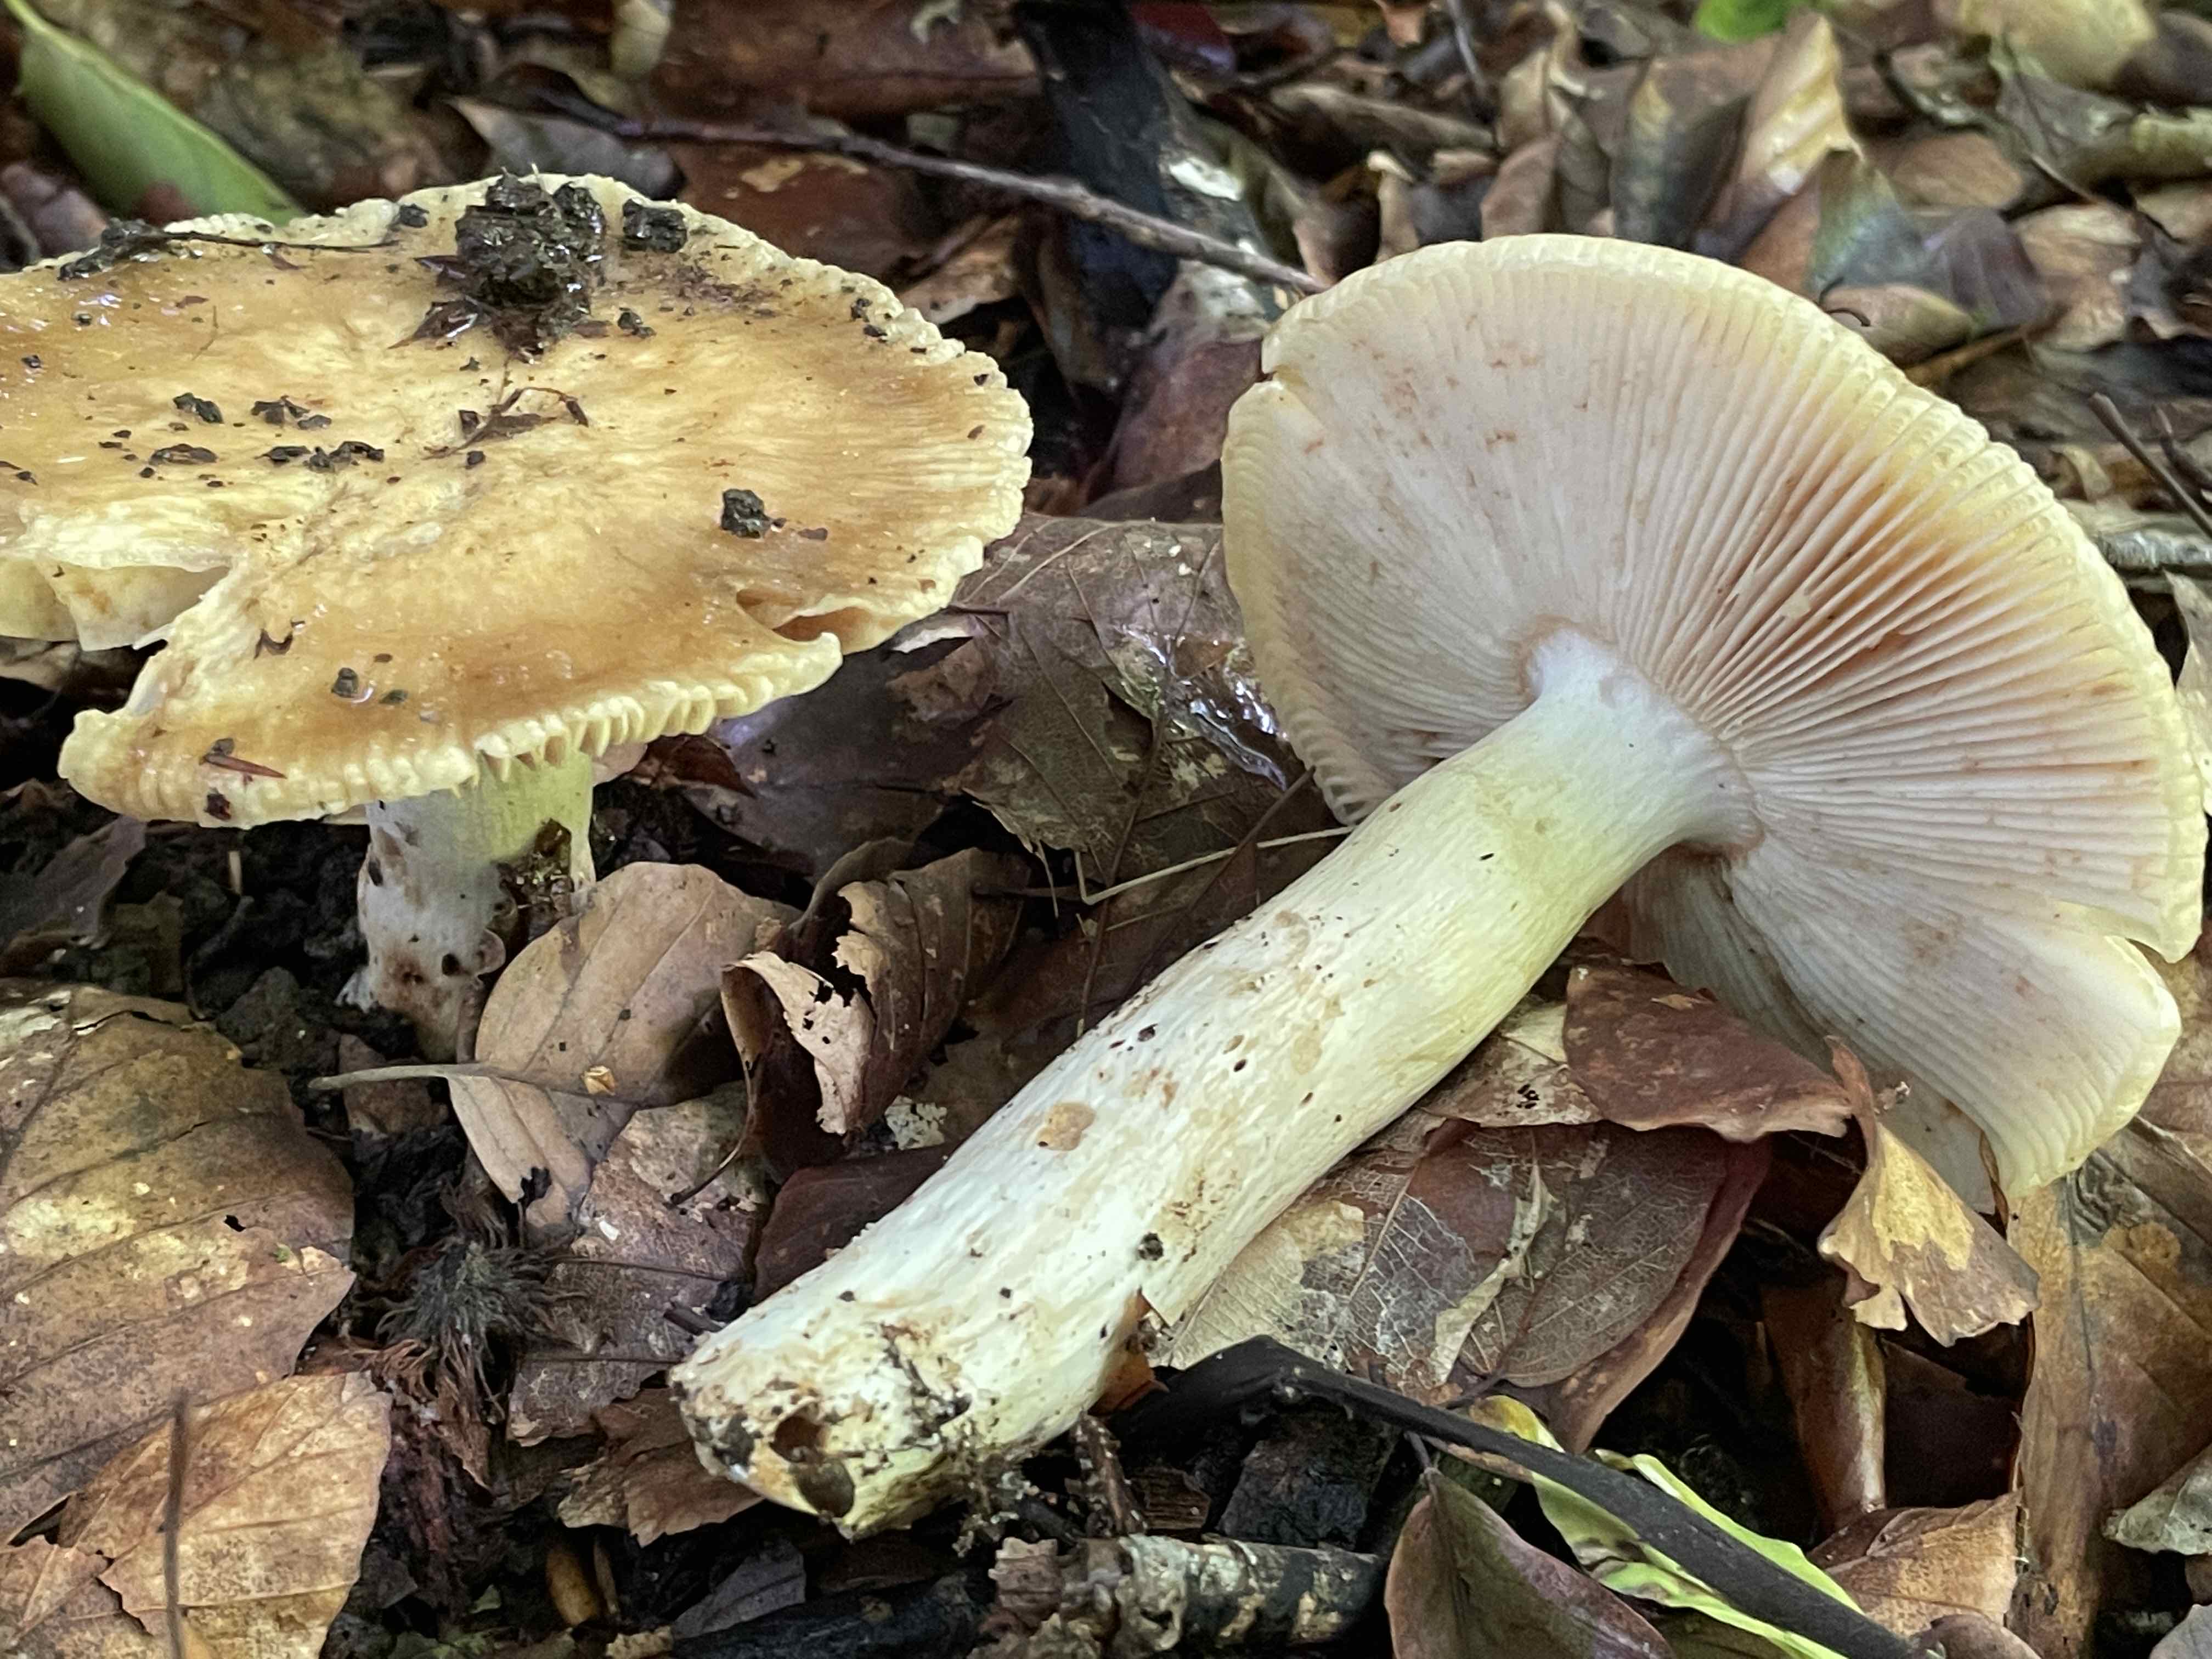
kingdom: Fungi
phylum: Basidiomycota
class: Agaricomycetes
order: Russulales
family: Russulaceae
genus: Russula
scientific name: Russula foetens
